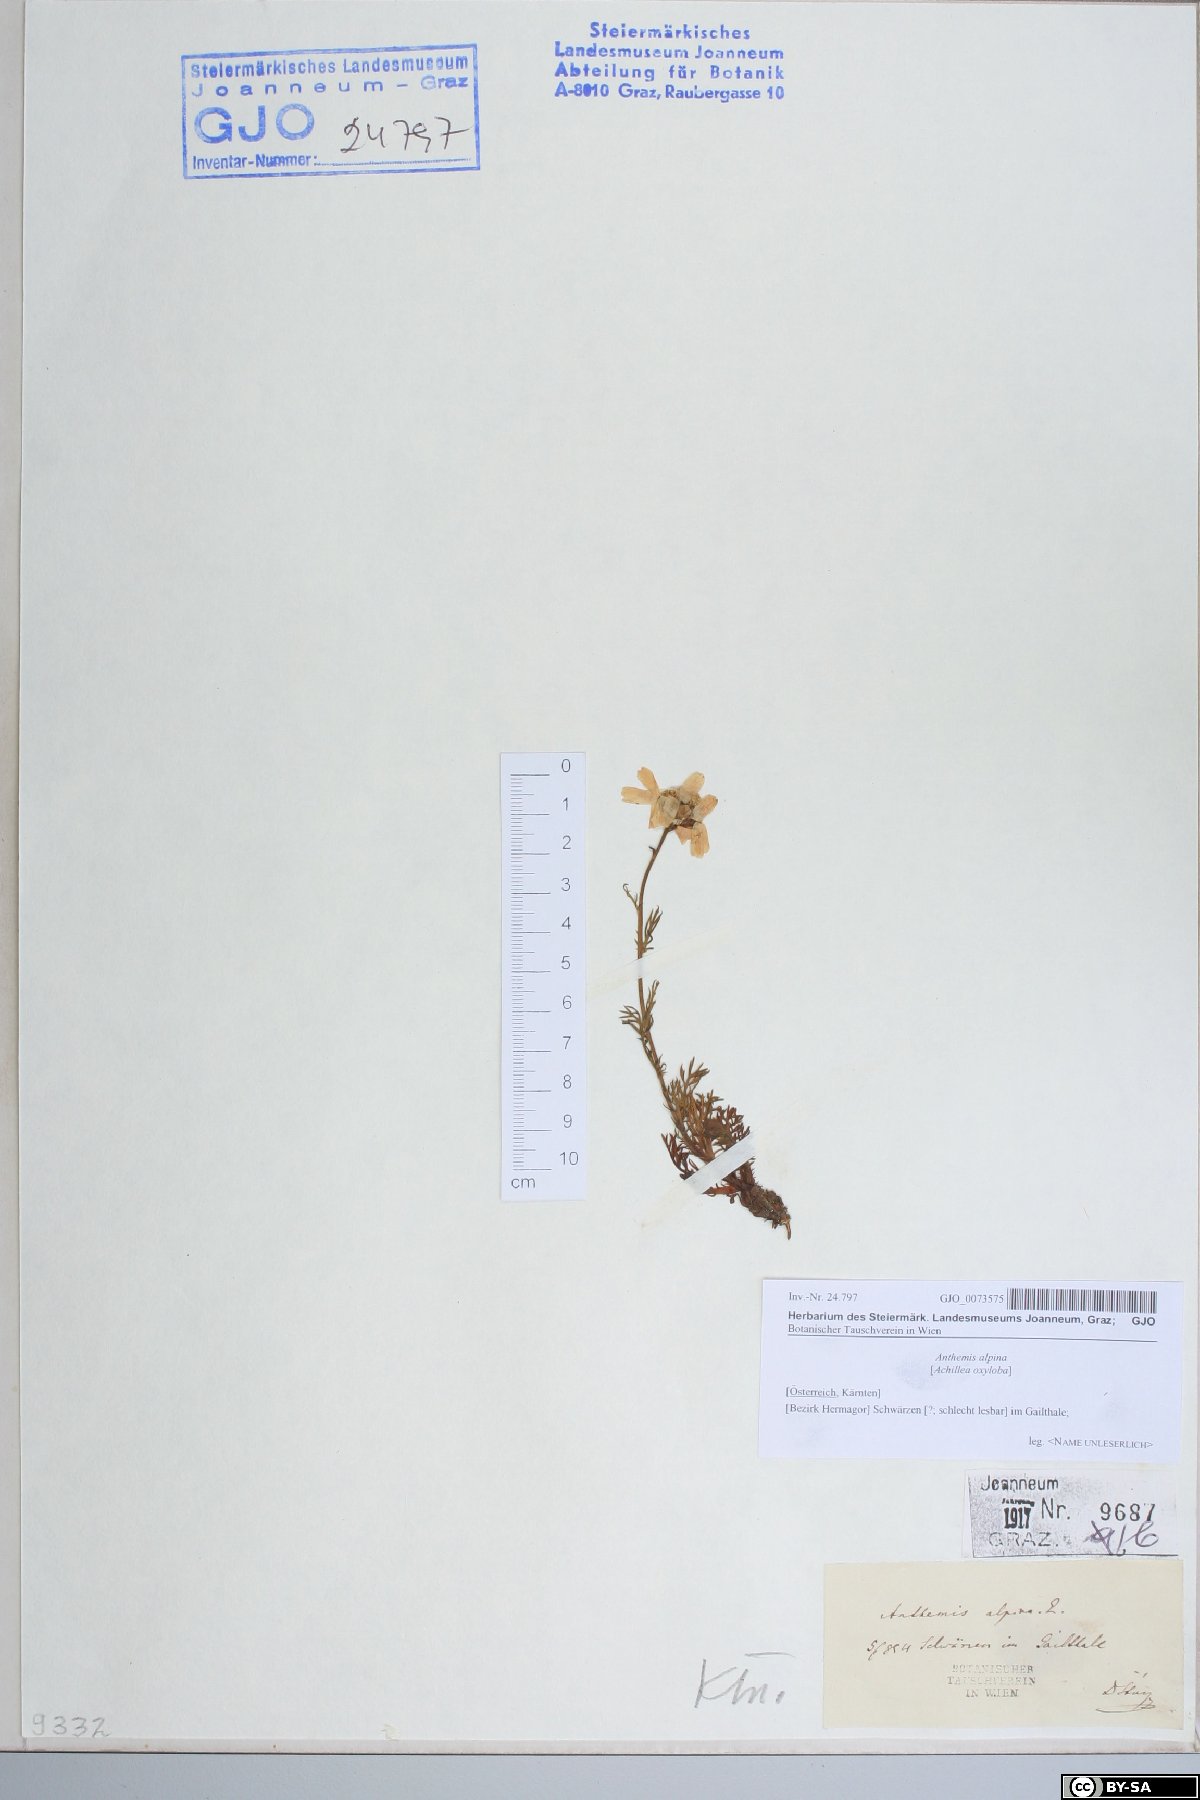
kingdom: Plantae
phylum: Tracheophyta
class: Magnoliopsida
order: Asterales
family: Asteraceae
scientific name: Asteraceae
